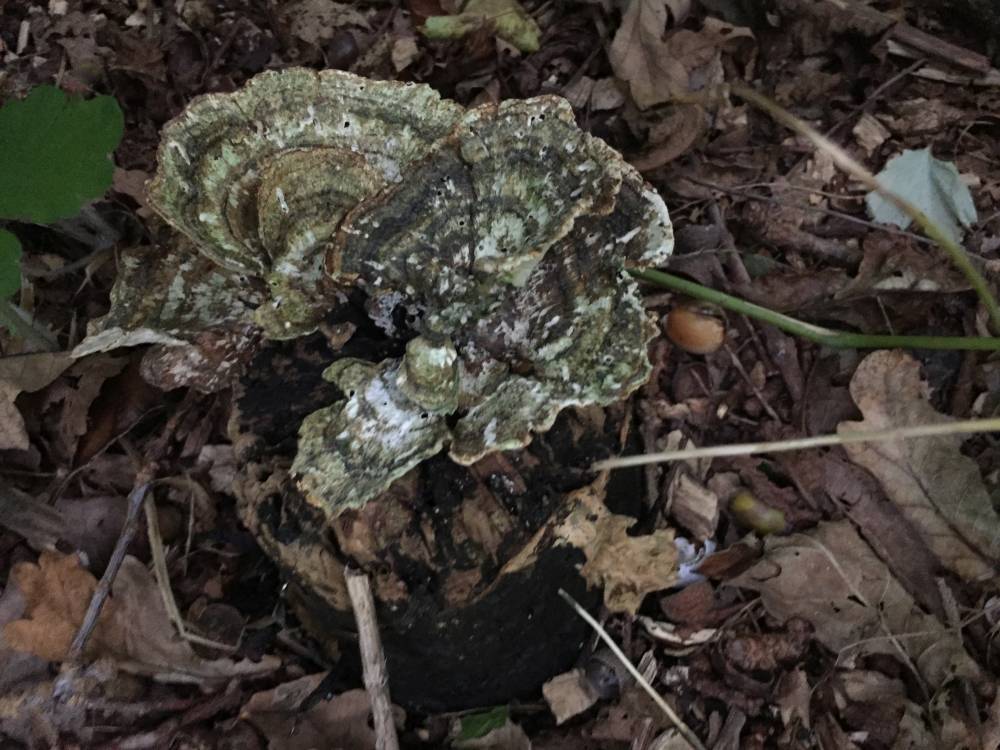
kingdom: Fungi
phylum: Basidiomycota
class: Agaricomycetes
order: Polyporales
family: Polyporaceae
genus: Trametes
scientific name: Trametes versicolor
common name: broget læderporesvamp
